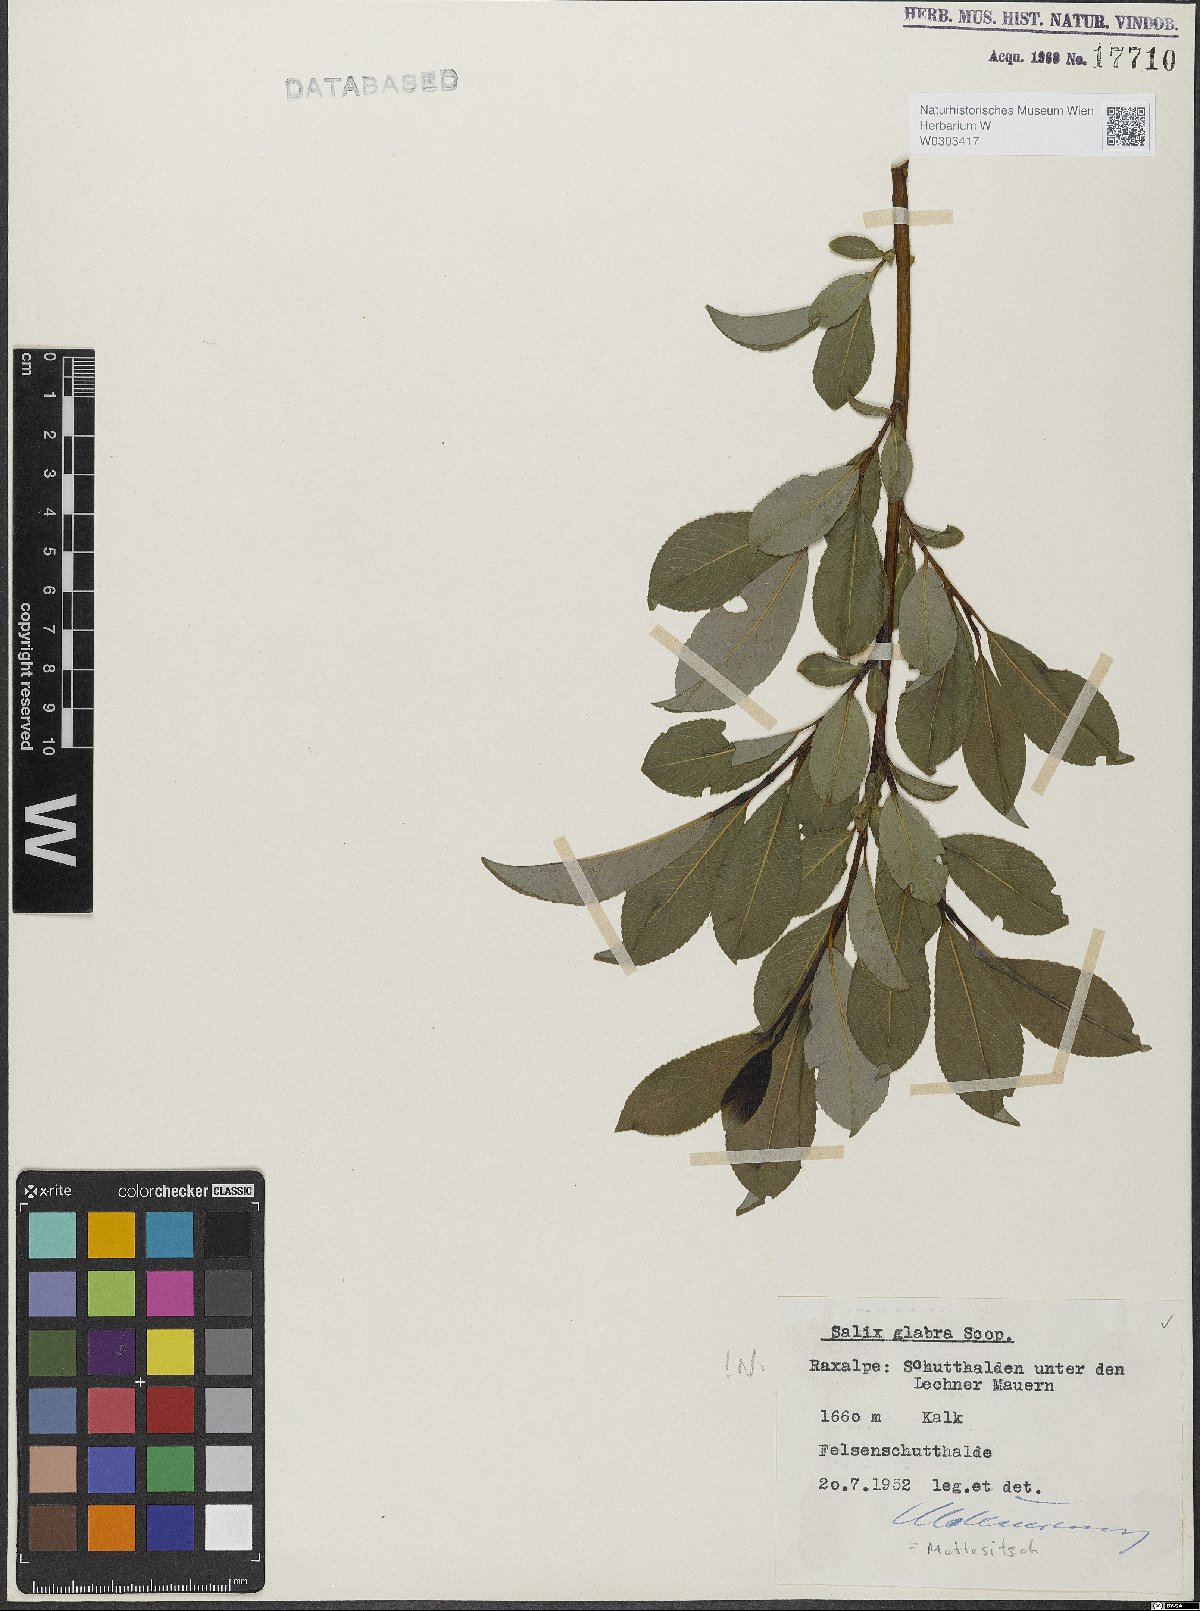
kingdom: Plantae
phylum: Tracheophyta
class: Magnoliopsida
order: Malpighiales
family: Salicaceae
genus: Salix
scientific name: Salix glabra
